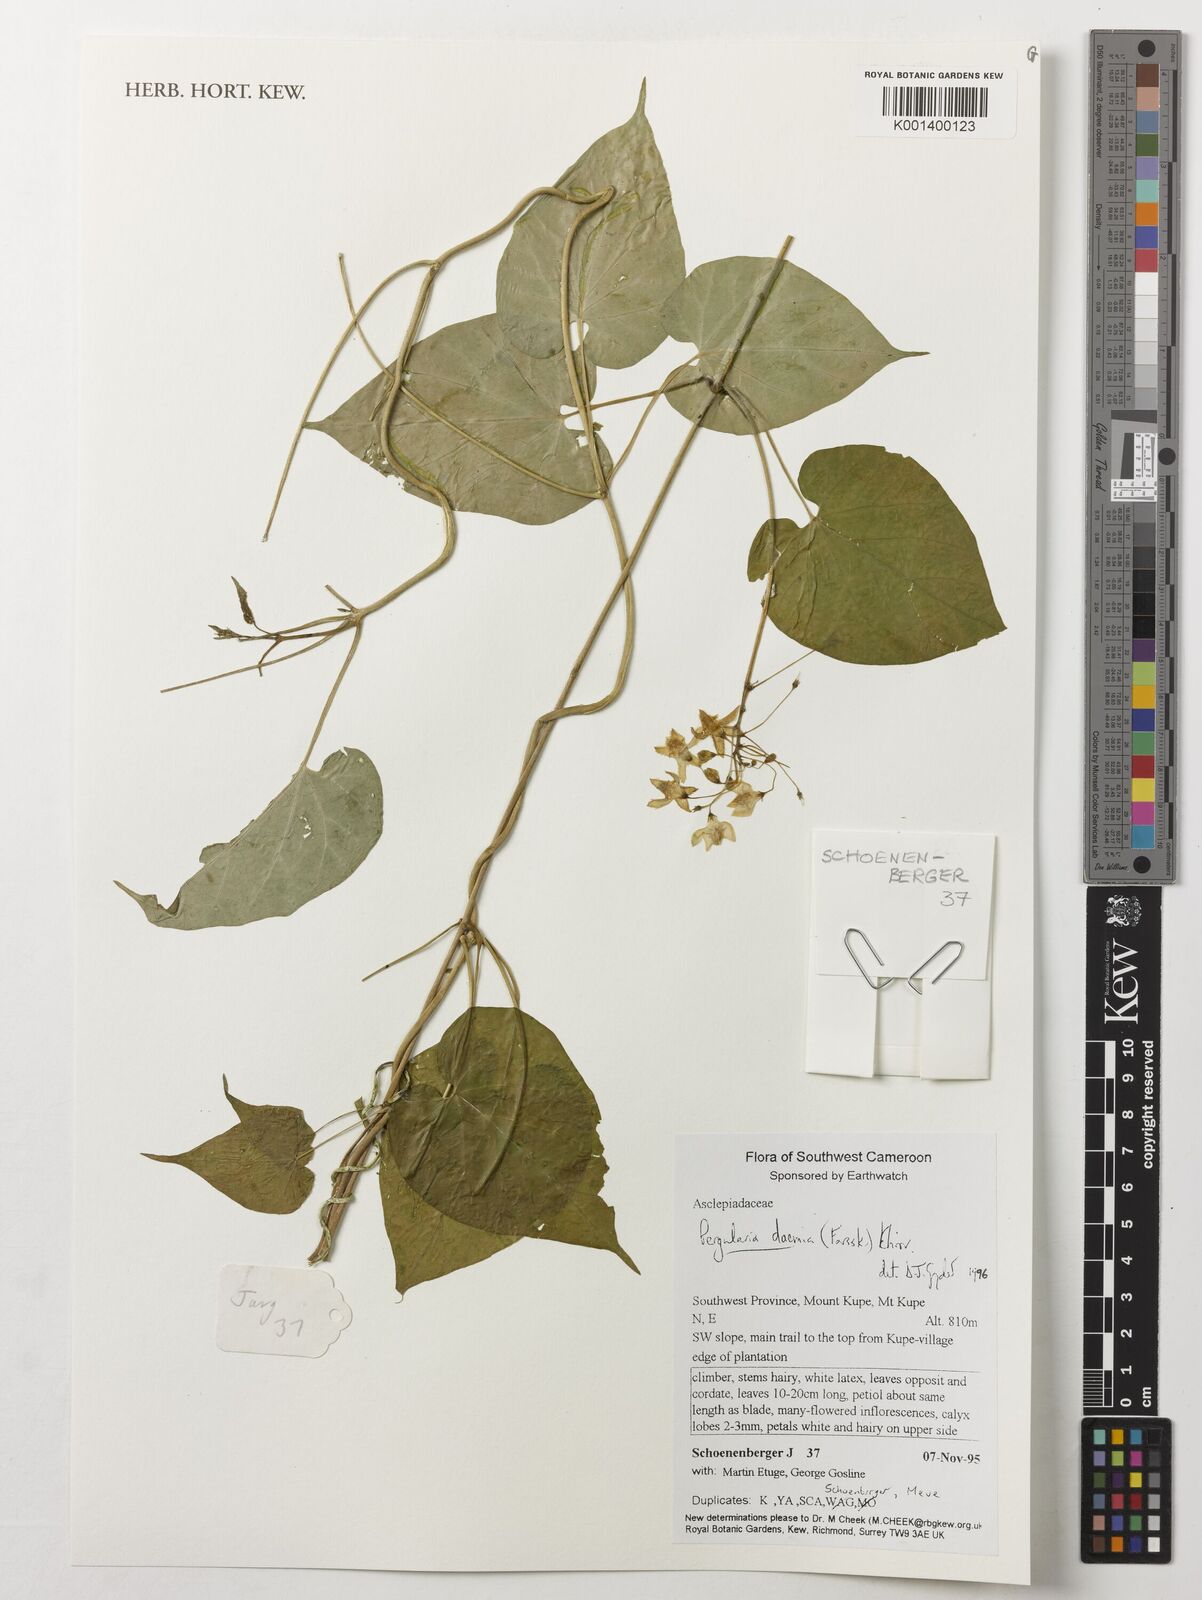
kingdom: Plantae
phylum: Tracheophyta
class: Magnoliopsida
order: Gentianales
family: Apocynaceae
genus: Pergularia
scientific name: Pergularia daemia
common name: Trellis-vine
